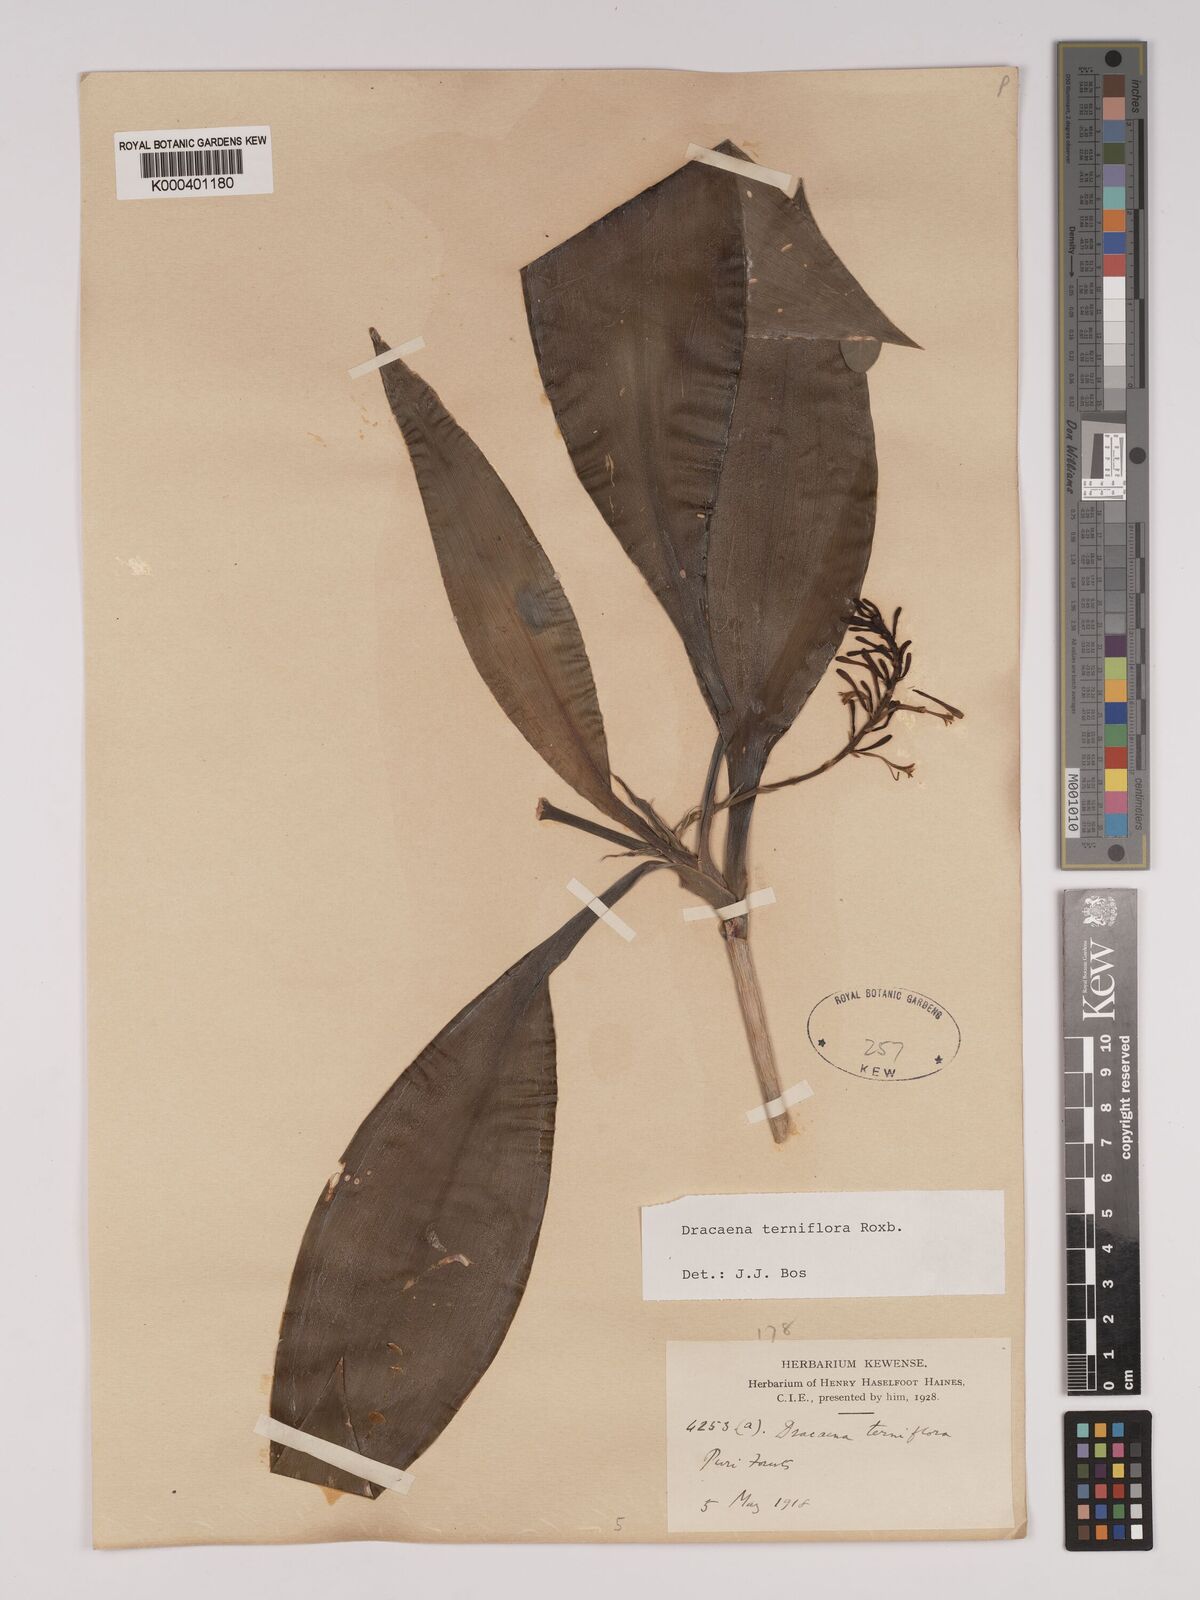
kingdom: Plantae
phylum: Tracheophyta
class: Liliopsida
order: Asparagales
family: Asparagaceae
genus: Dracaena
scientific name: Dracaena terniflora
